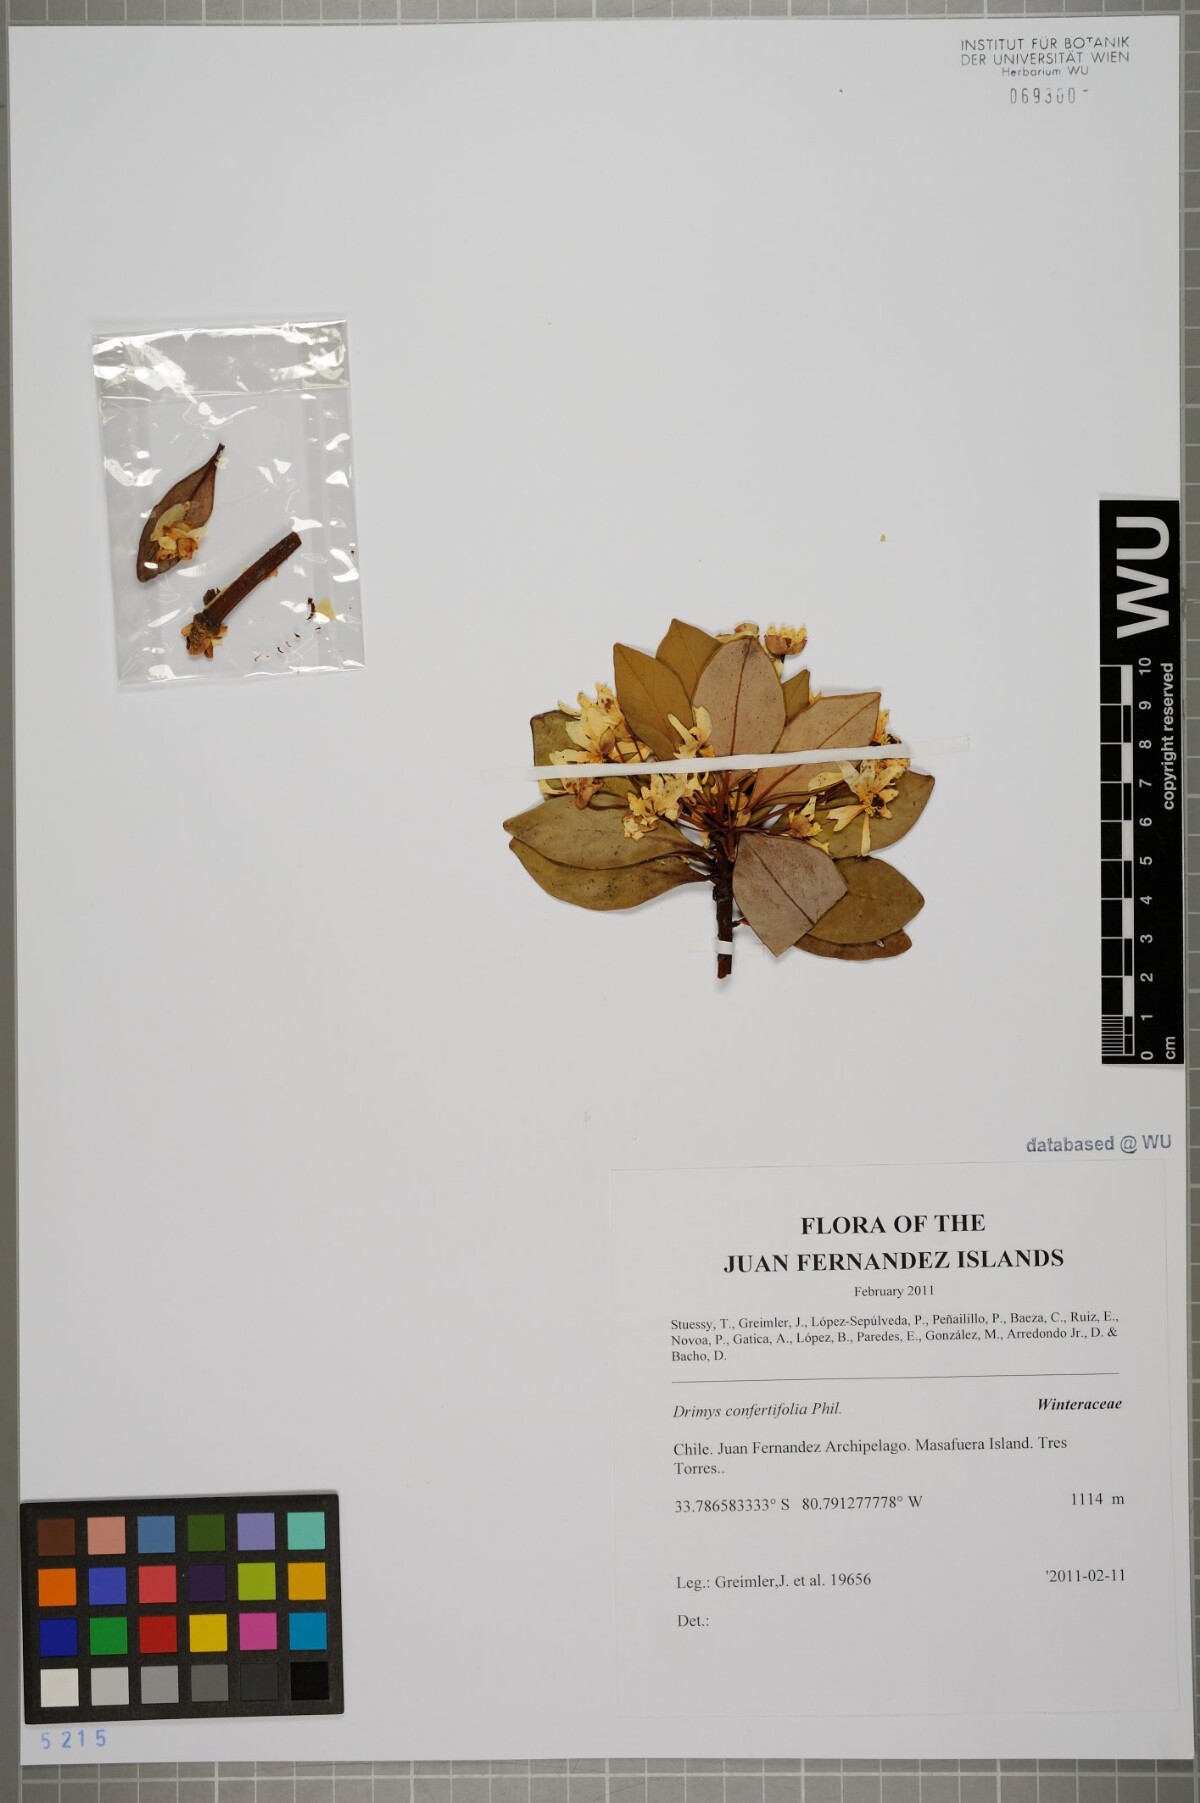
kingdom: Plantae
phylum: Tracheophyta
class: Magnoliopsida
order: Canellales
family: Winteraceae
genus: Drimys
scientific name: Drimys confertiflora
